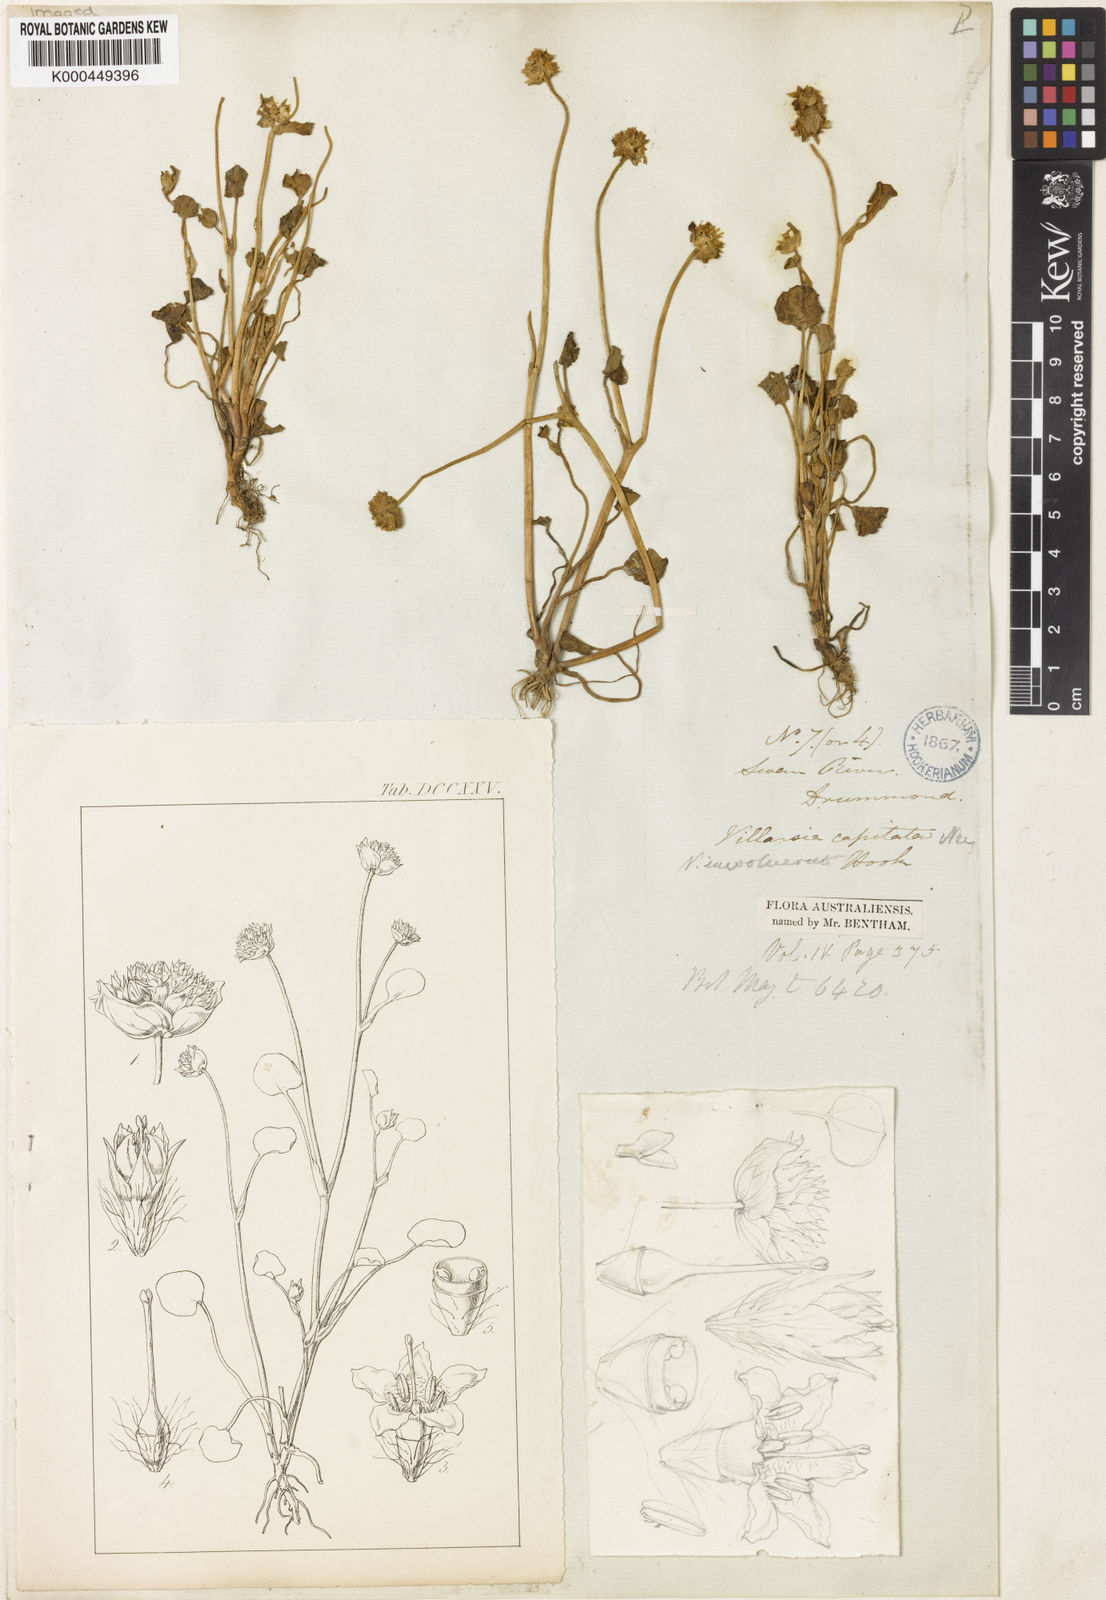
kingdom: Plantae
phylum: Tracheophyta
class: Magnoliopsida
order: Asterales
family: Menyanthaceae
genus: Liparophyllum
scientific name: Liparophyllum capitatum
